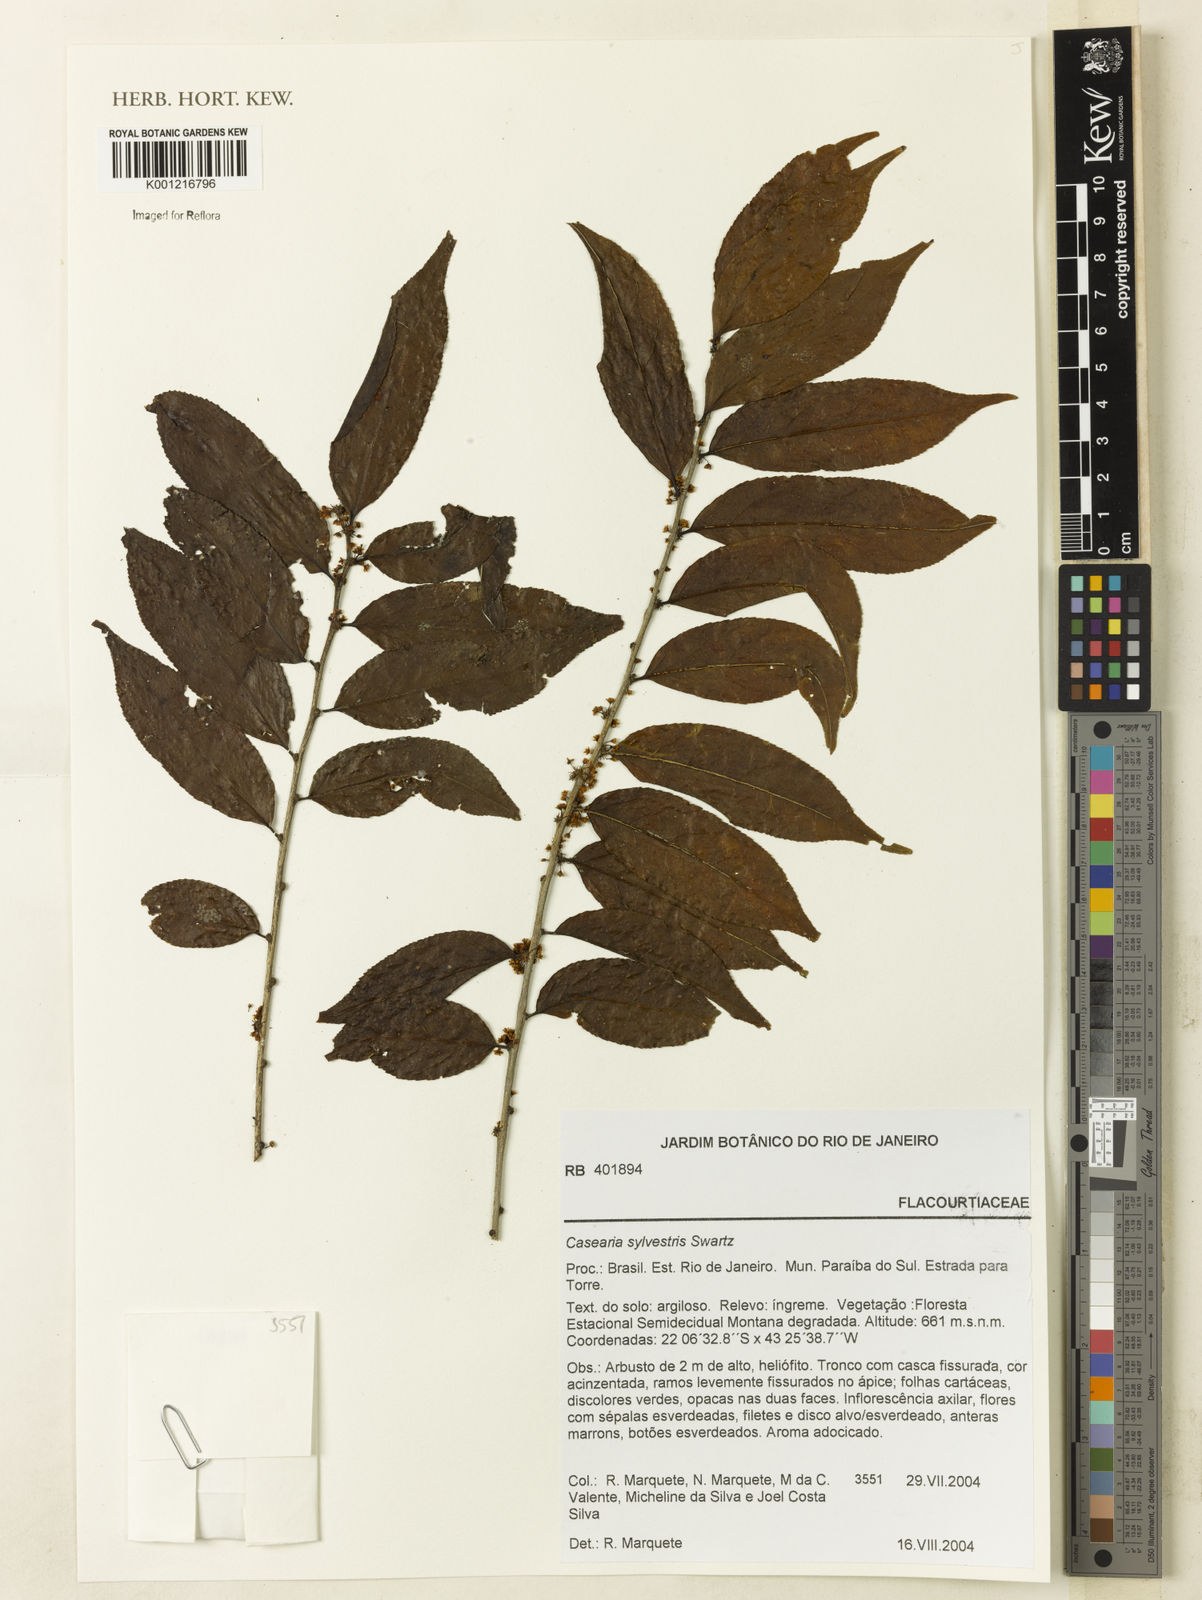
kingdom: Plantae
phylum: Tracheophyta
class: Magnoliopsida
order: Malpighiales
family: Salicaceae
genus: Casearia
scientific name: Casearia sylvestris
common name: Wild sage
